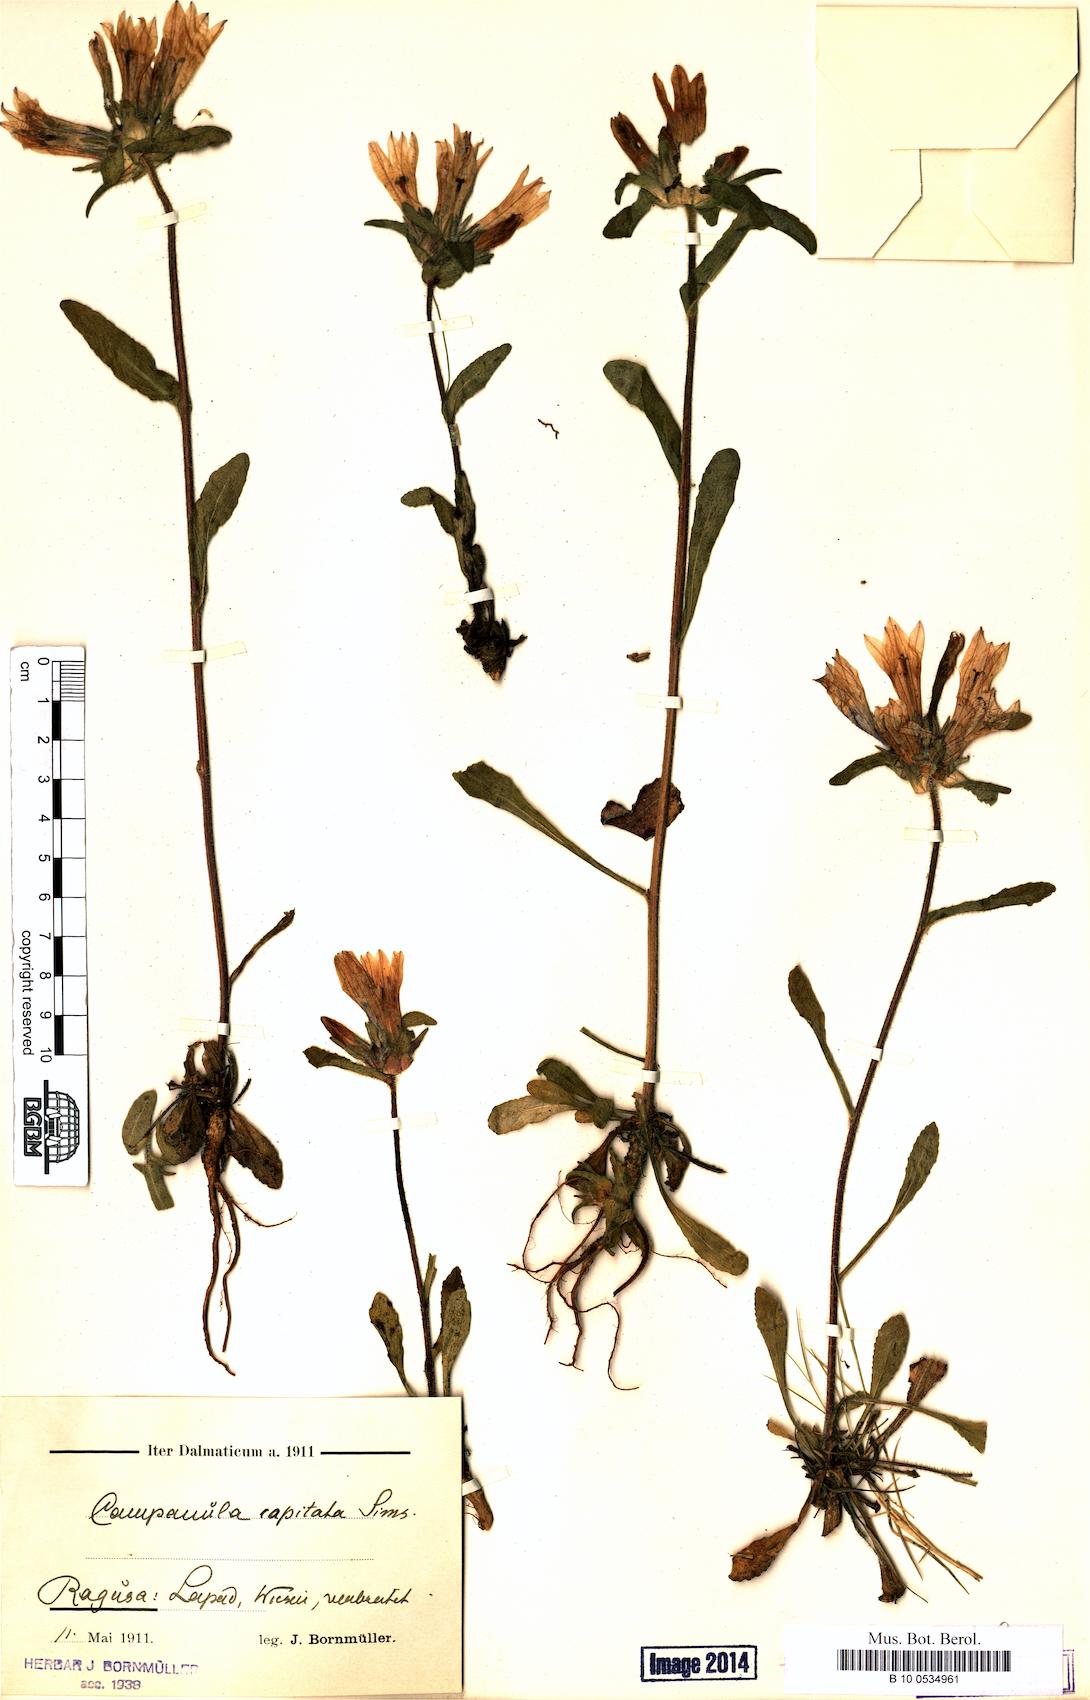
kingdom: Plantae
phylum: Tracheophyta
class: Magnoliopsida
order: Asterales
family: Campanulaceae
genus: Campanula
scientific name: Campanula lingulata
